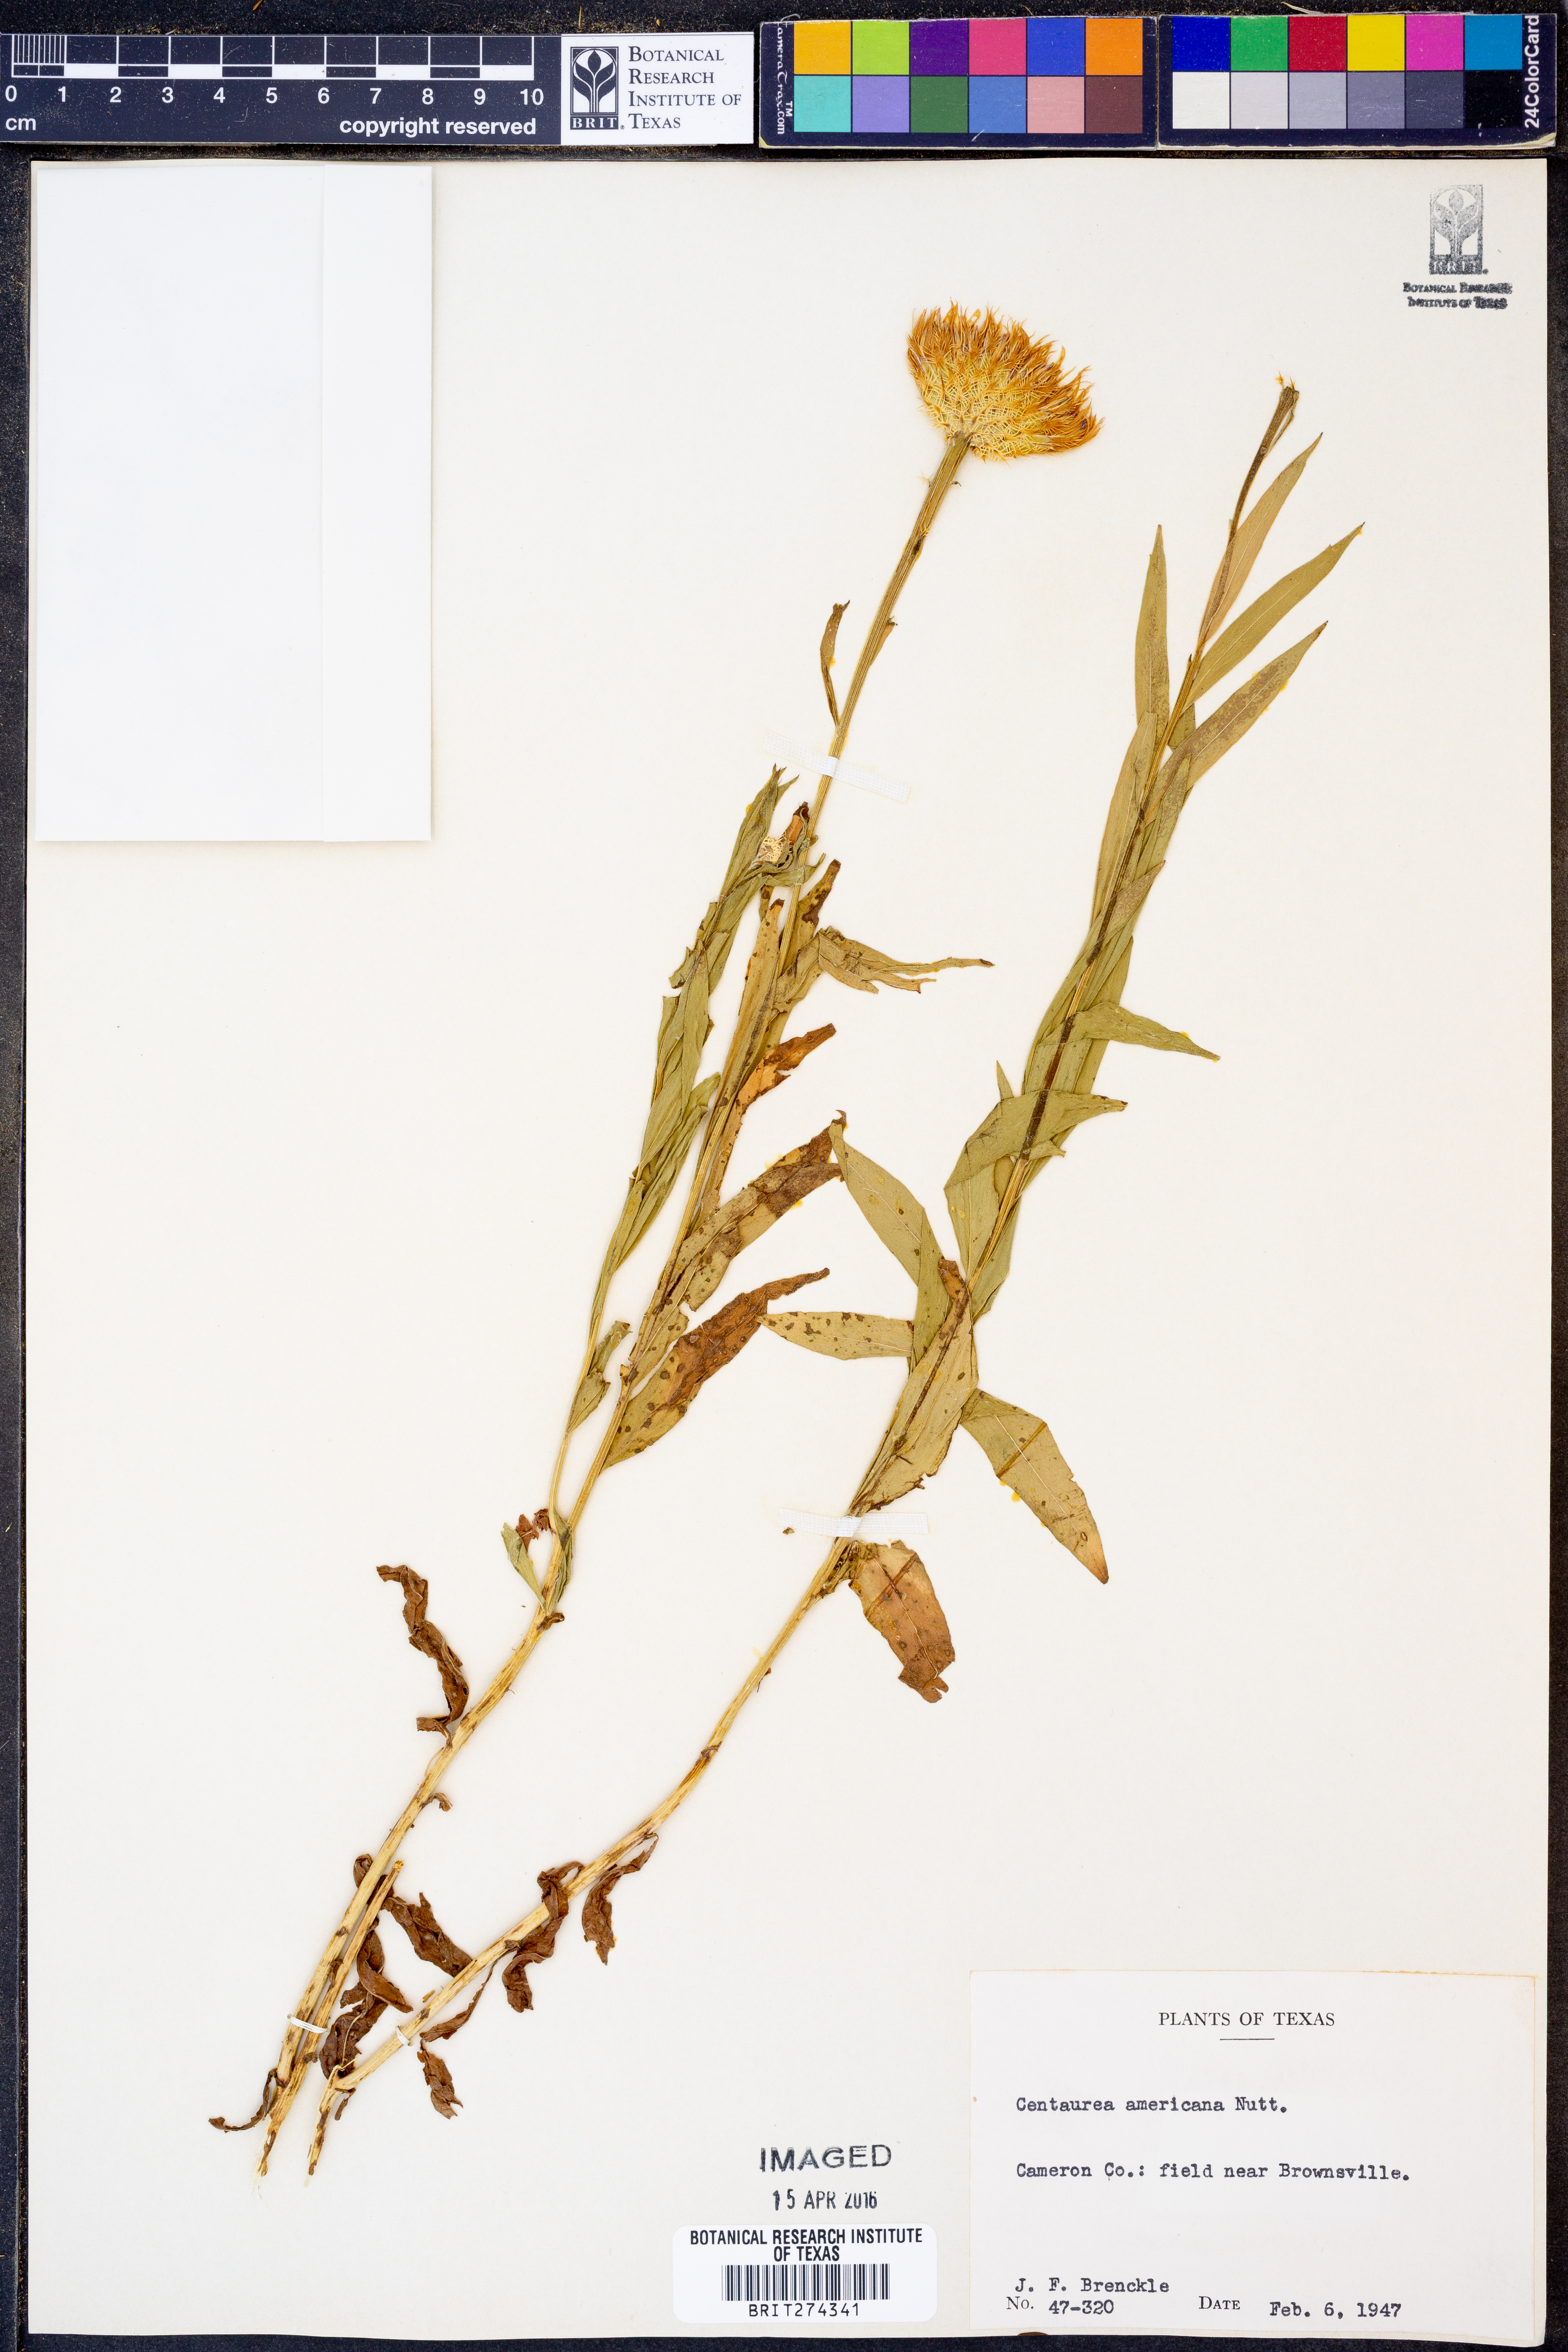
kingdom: Plantae
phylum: Tracheophyta
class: Magnoliopsida
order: Asterales
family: Asteraceae
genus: Plectocephalus
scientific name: Plectocephalus americanus
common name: American basket-flower
